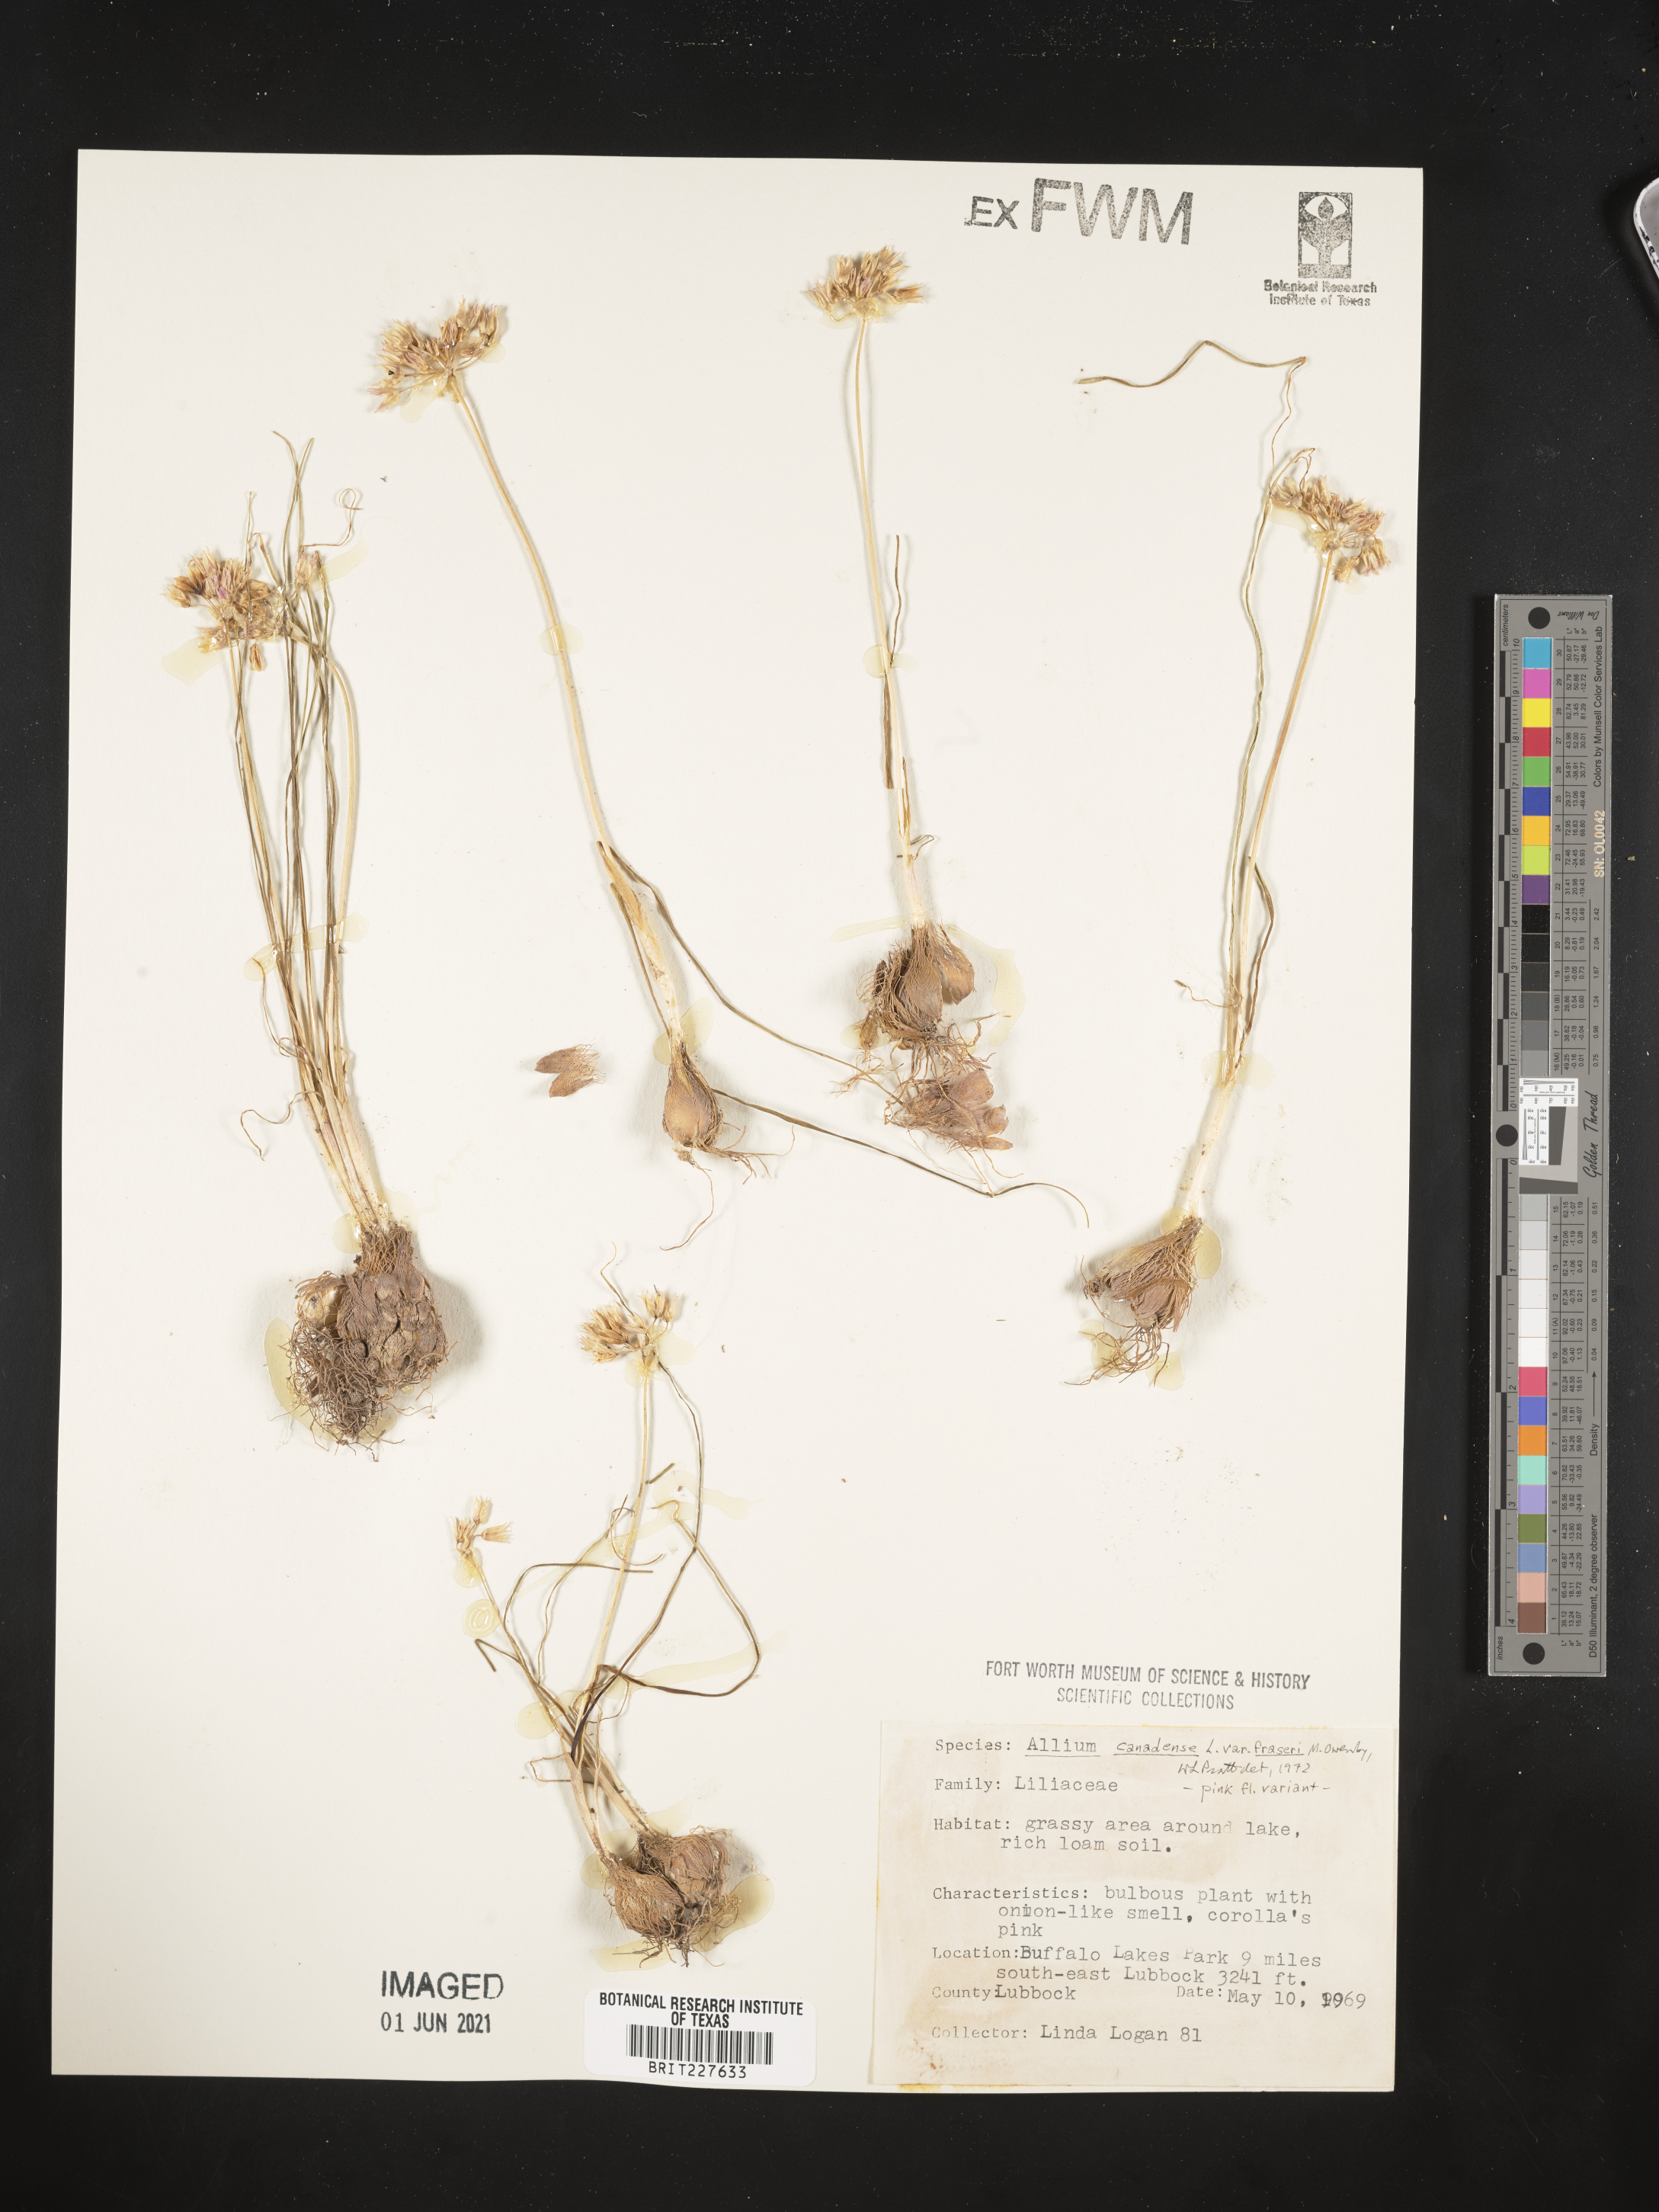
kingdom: Plantae
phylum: Tracheophyta
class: Liliopsida
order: Asparagales
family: Amaryllidaceae
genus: Allium
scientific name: Allium fraseri
